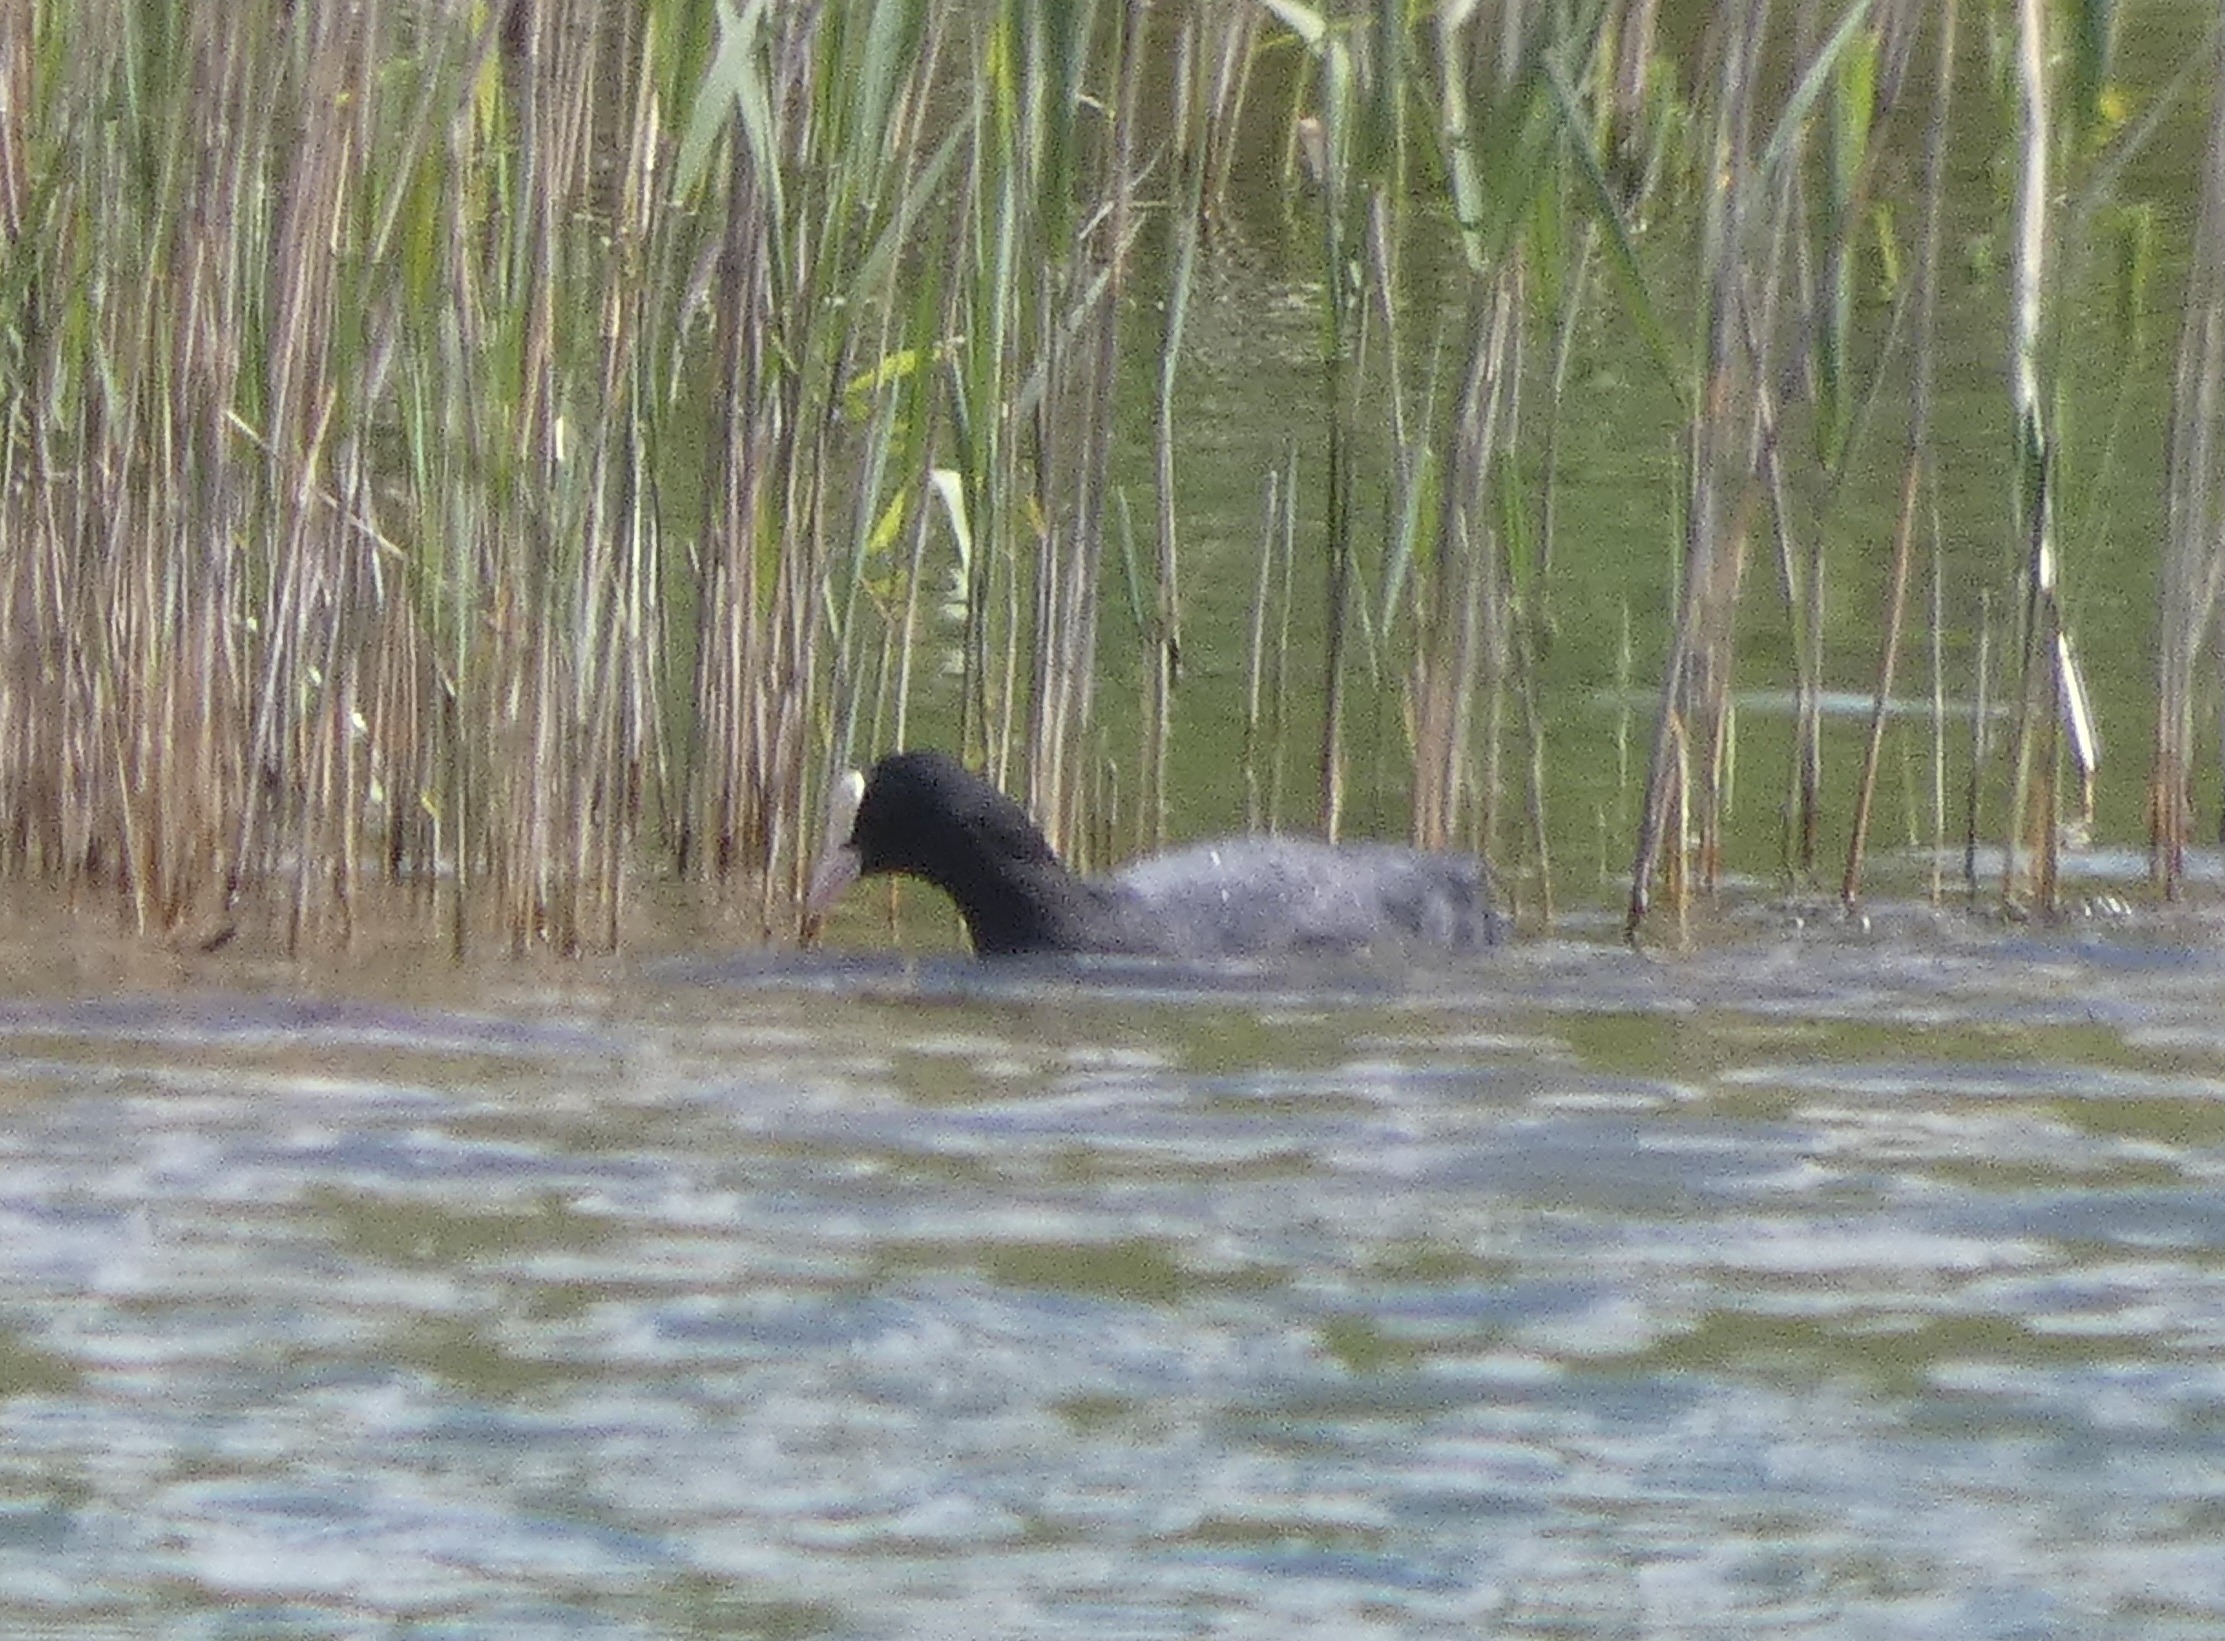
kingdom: Animalia
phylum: Chordata
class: Aves
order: Gruiformes
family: Rallidae
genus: Fulica
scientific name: Fulica atra
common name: Blishøne
